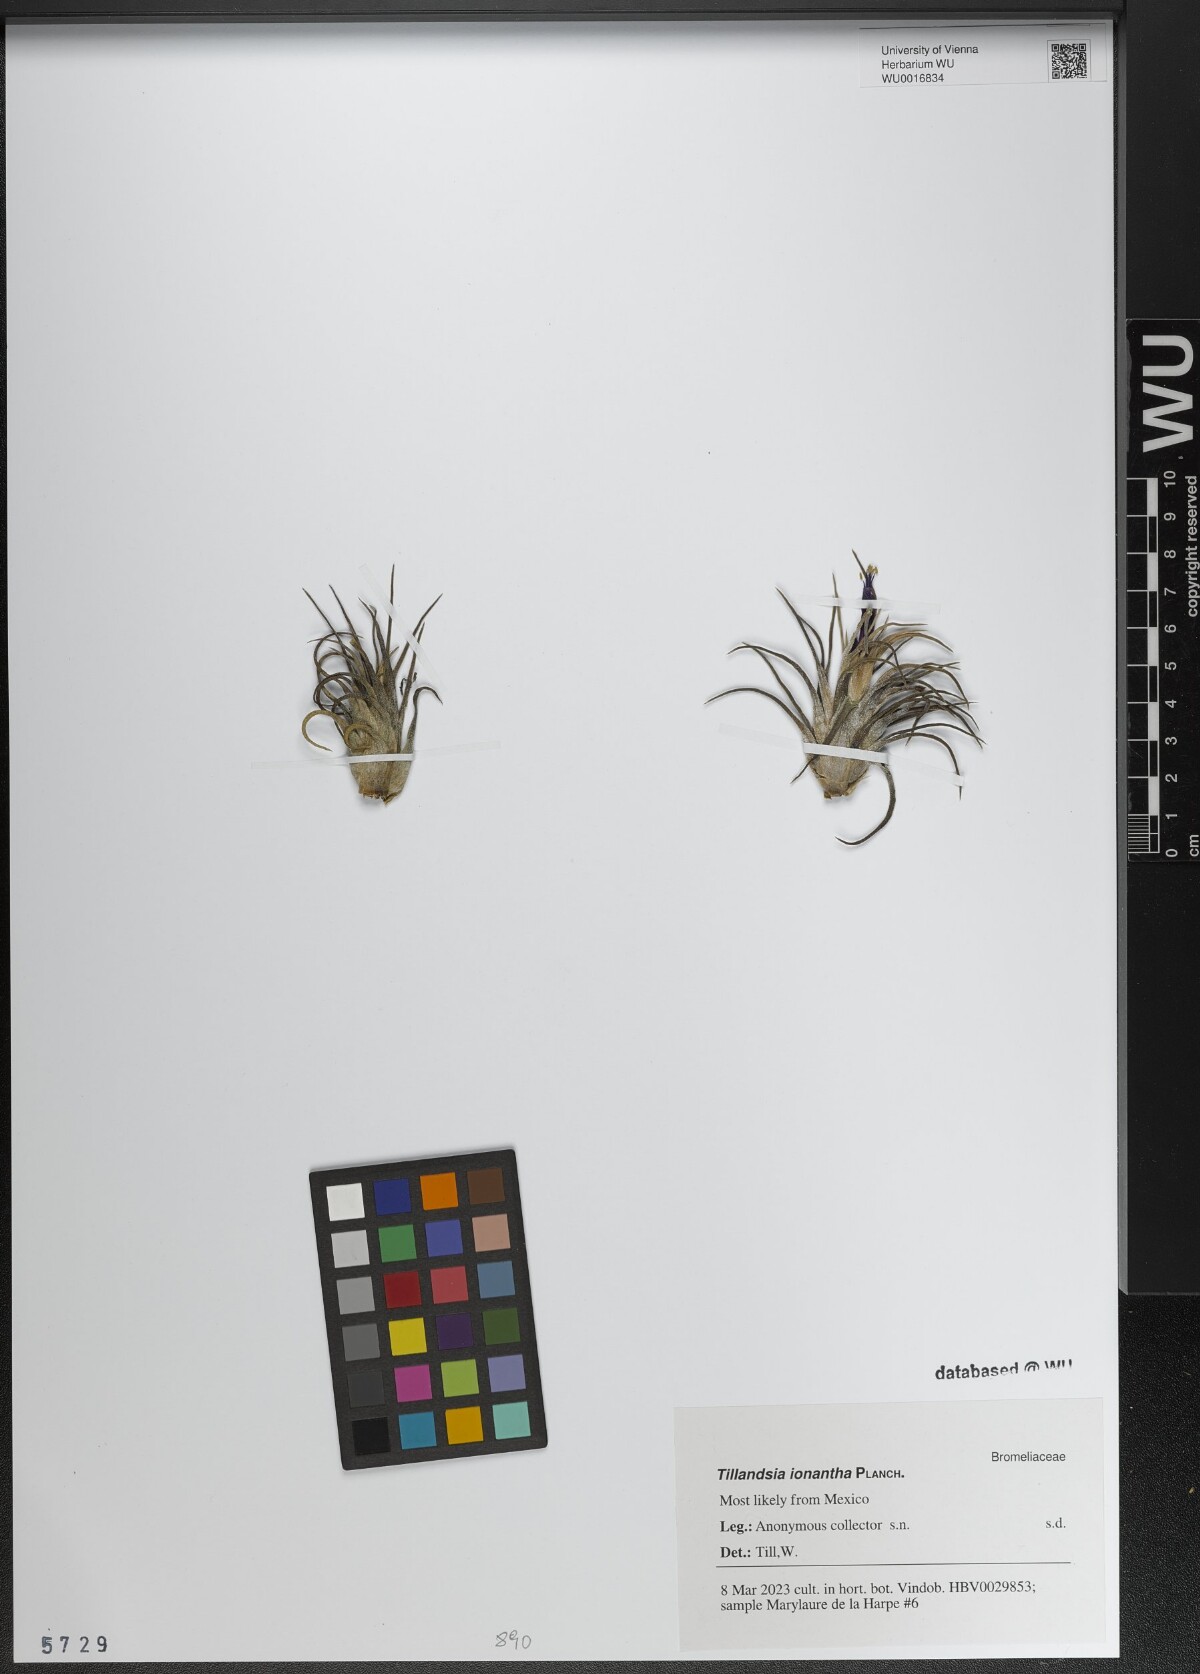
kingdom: Plantae
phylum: Tracheophyta
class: Liliopsida
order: Poales
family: Bromeliaceae
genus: Tillandsia
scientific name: Tillandsia ionantha
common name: Sky plant
